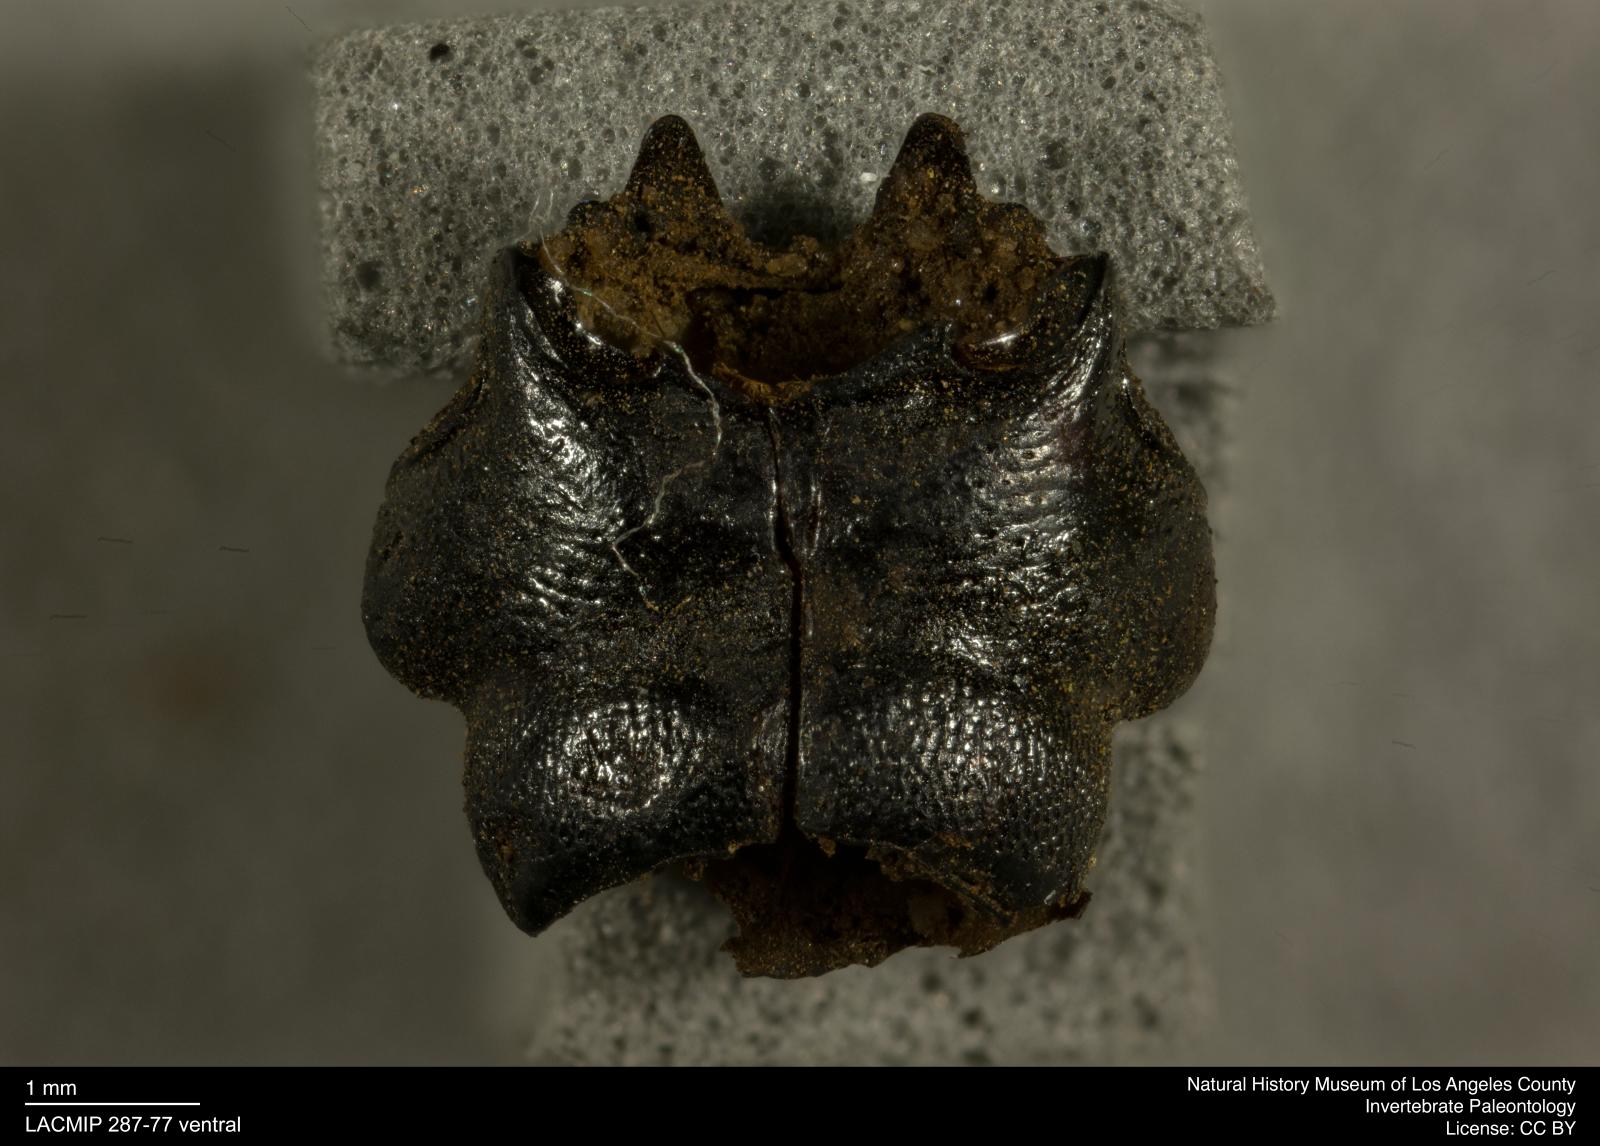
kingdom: Animalia
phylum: Arthropoda
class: Insecta
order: Coleoptera
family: Staphylinidae
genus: Nicrophorus
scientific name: Nicrophorus marginatus
